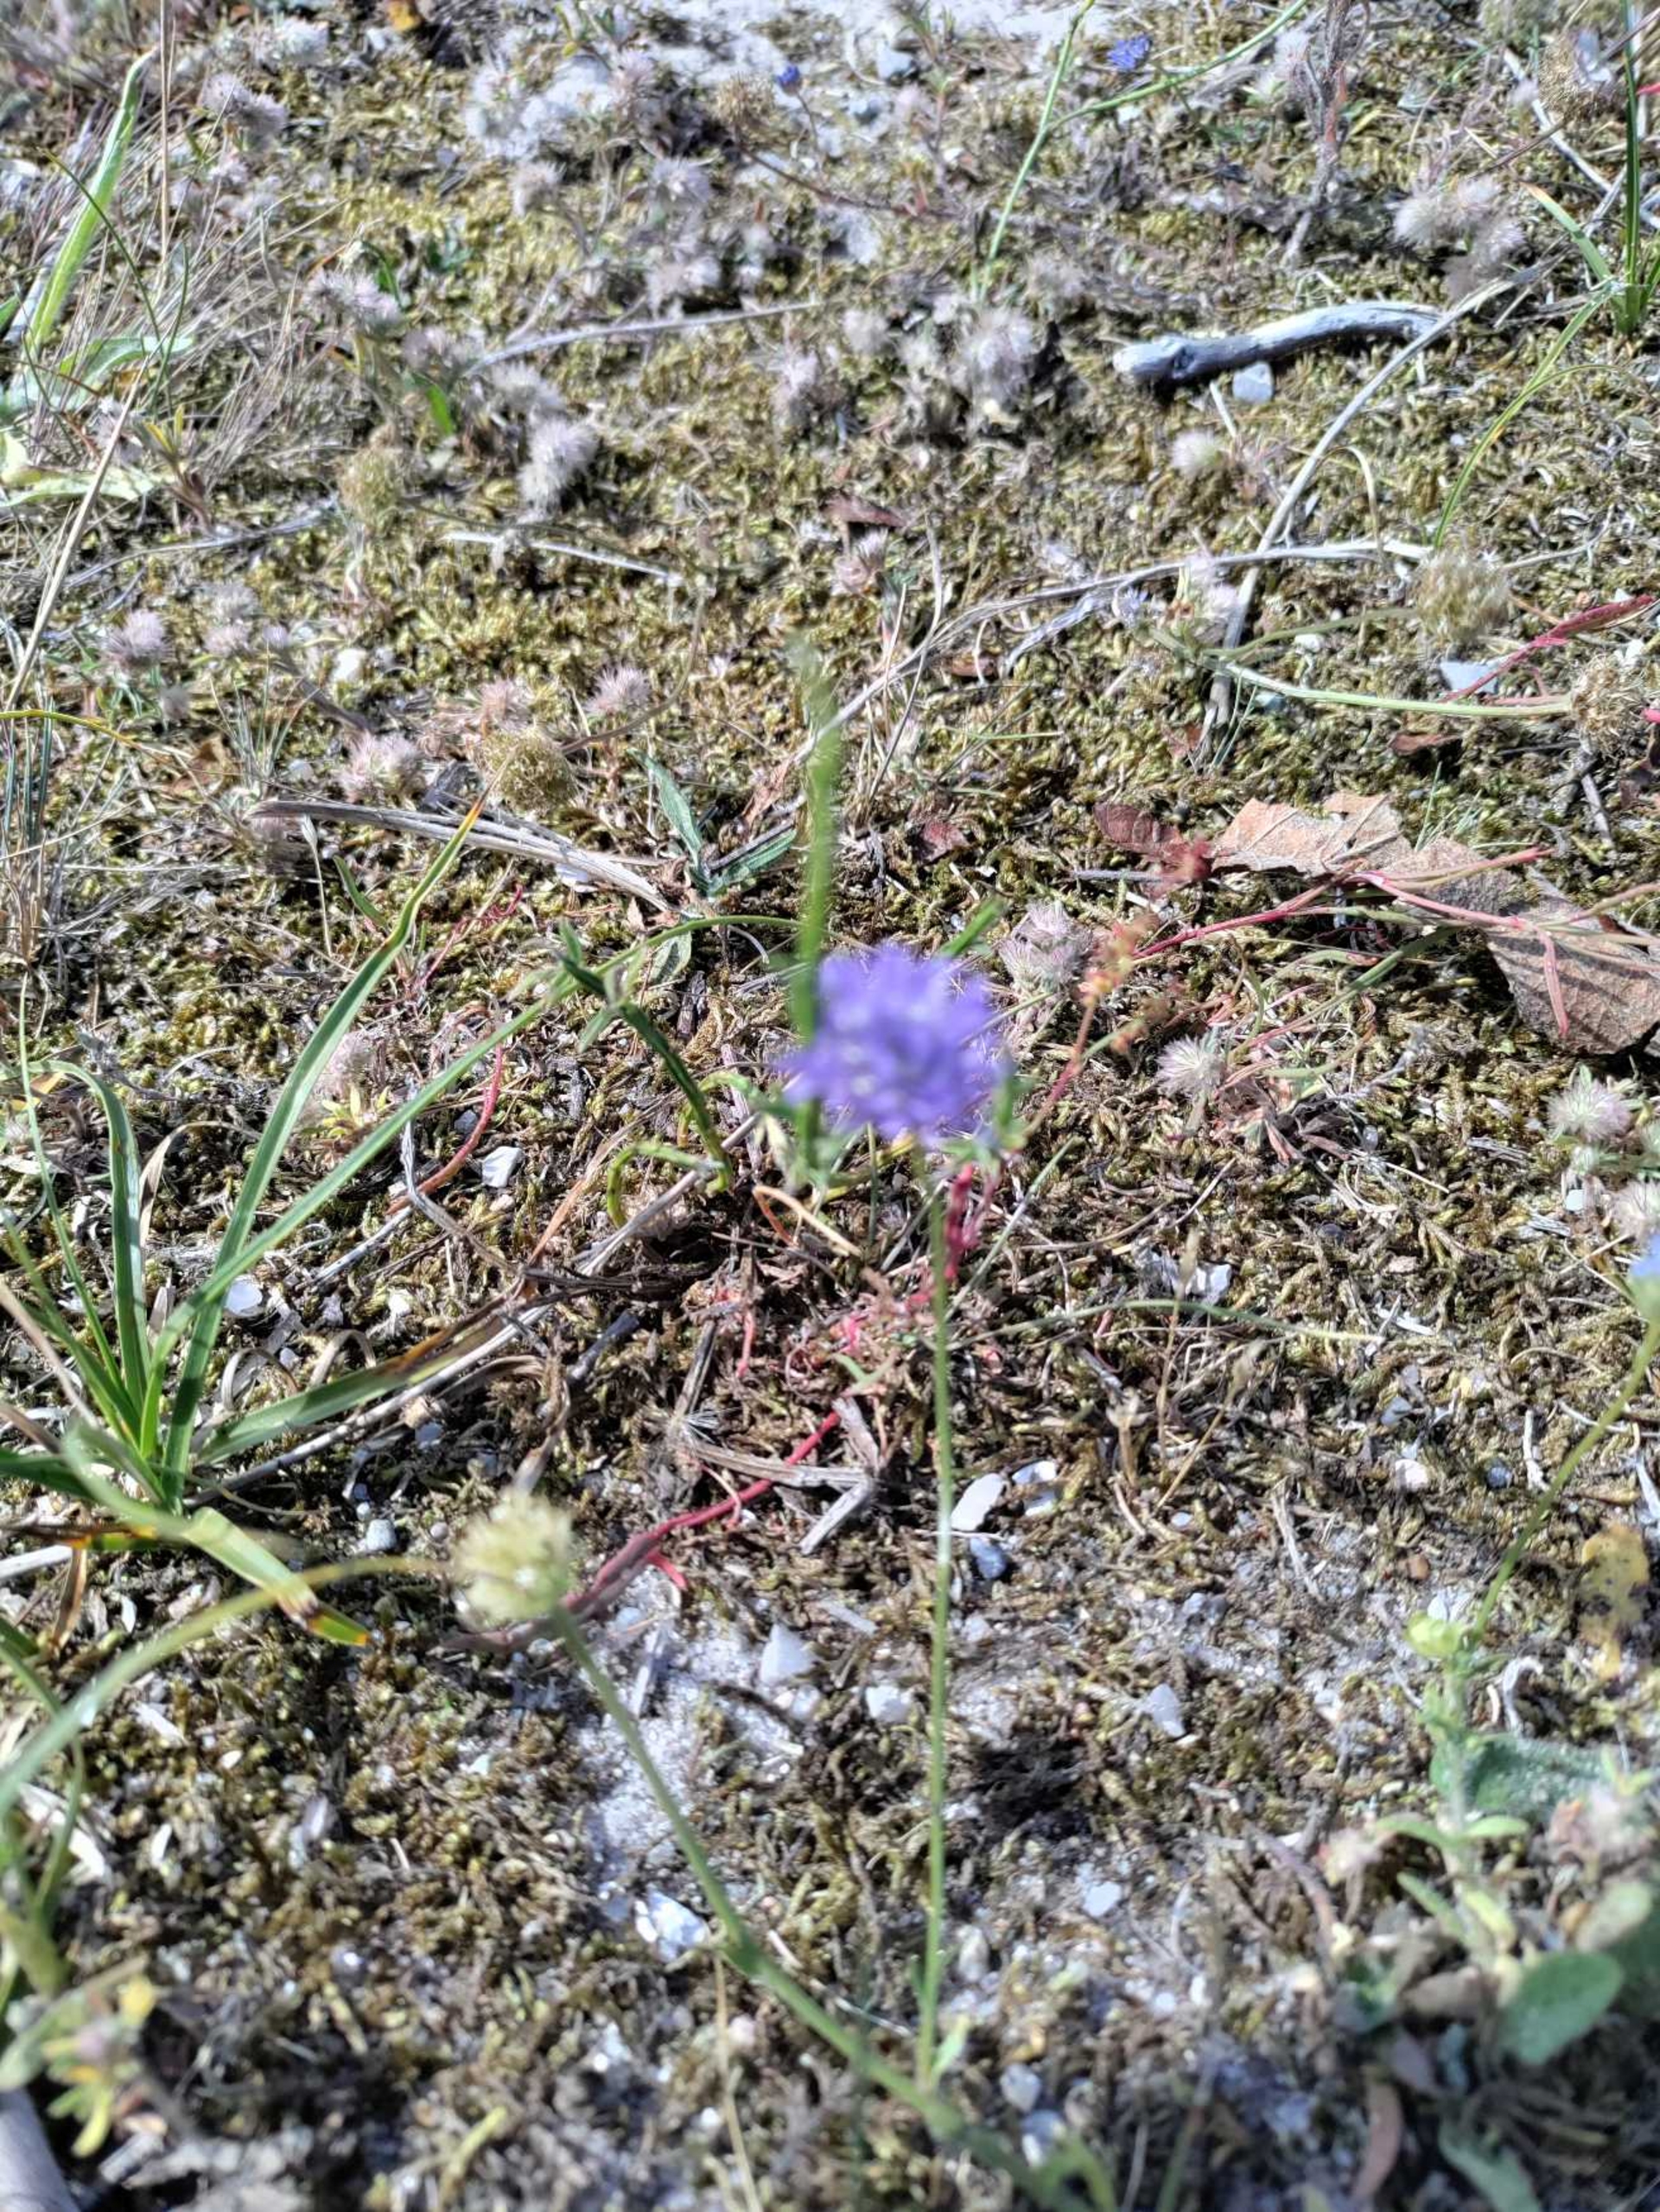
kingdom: Plantae
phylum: Tracheophyta
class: Magnoliopsida
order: Asterales
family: Campanulaceae
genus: Jasione
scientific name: Jasione montana
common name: Blåmunke
